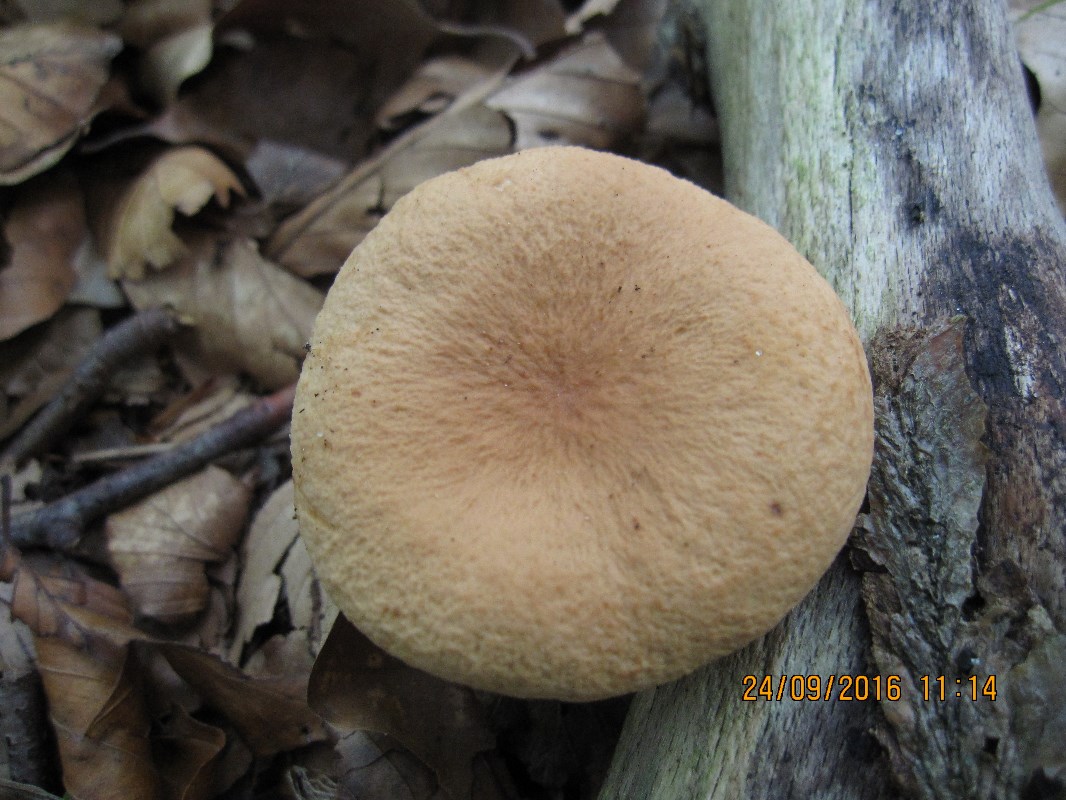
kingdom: Fungi
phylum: Basidiomycota
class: Agaricomycetes
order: Russulales
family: Russulaceae
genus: Lactarius
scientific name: Lactarius rubrocinctus
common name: halsbånd-mælkehat
